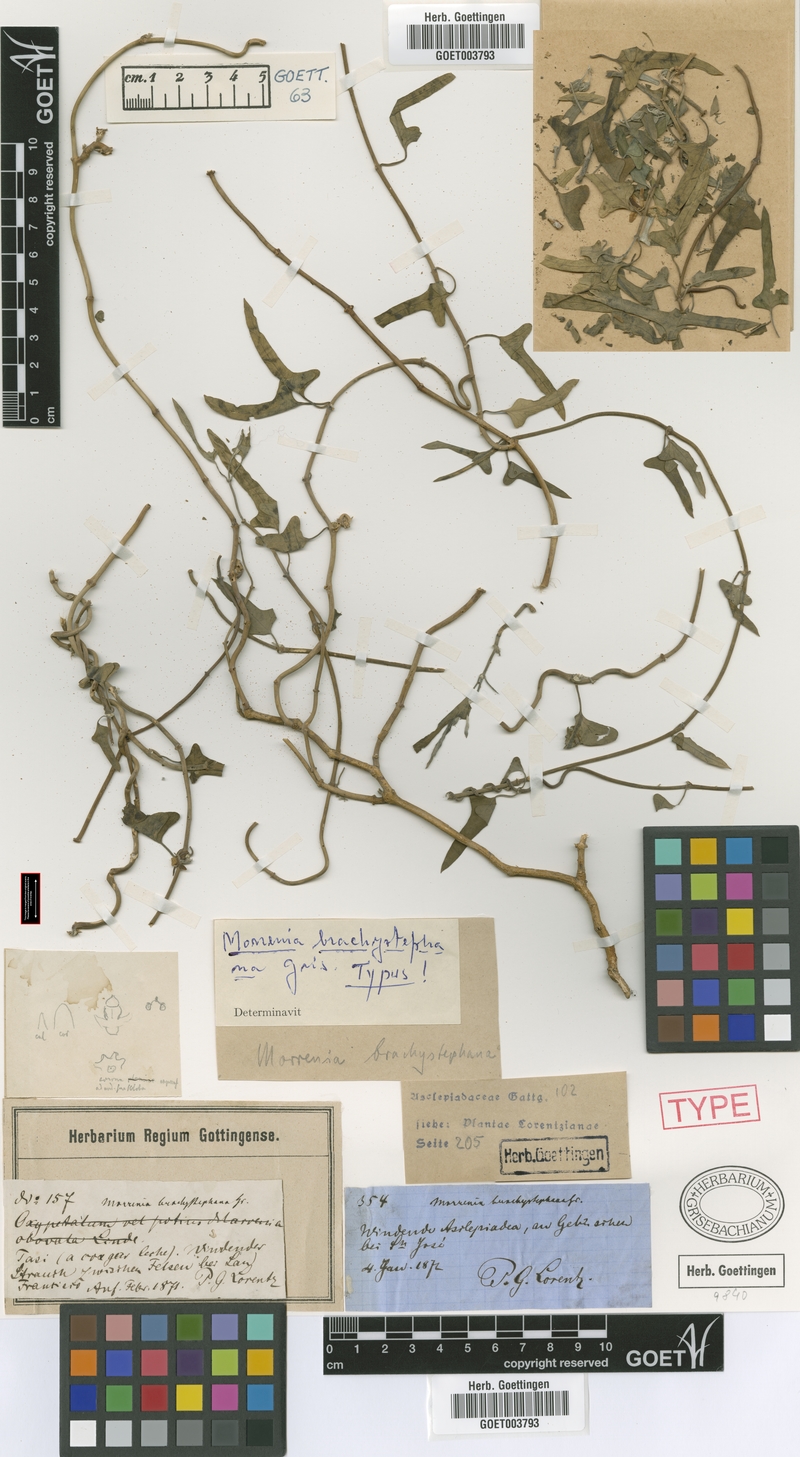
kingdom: Plantae
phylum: Tracheophyta
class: Magnoliopsida
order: Gentianales
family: Apocynaceae
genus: Araujia
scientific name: Araujia brachystephana
